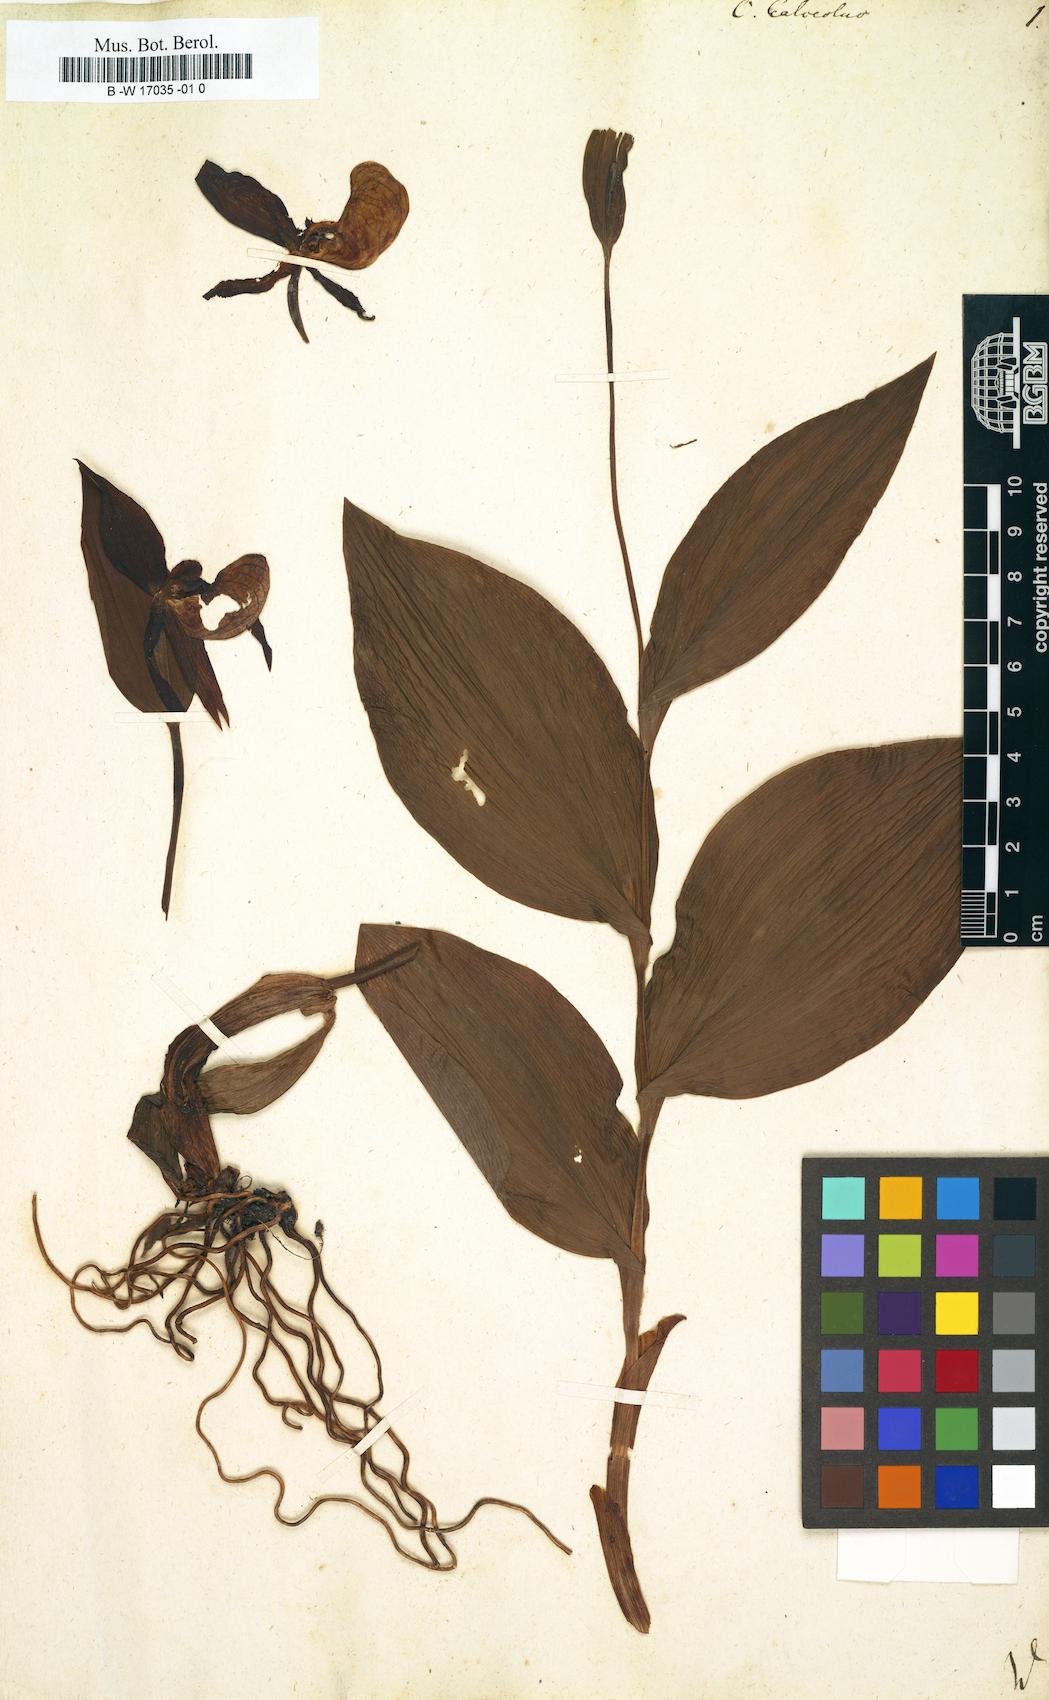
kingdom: Plantae
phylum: Tracheophyta
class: Liliopsida
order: Asparagales
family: Orchidaceae
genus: Cypripedium
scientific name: Cypripedium calceolus
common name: Lady's-slipper
